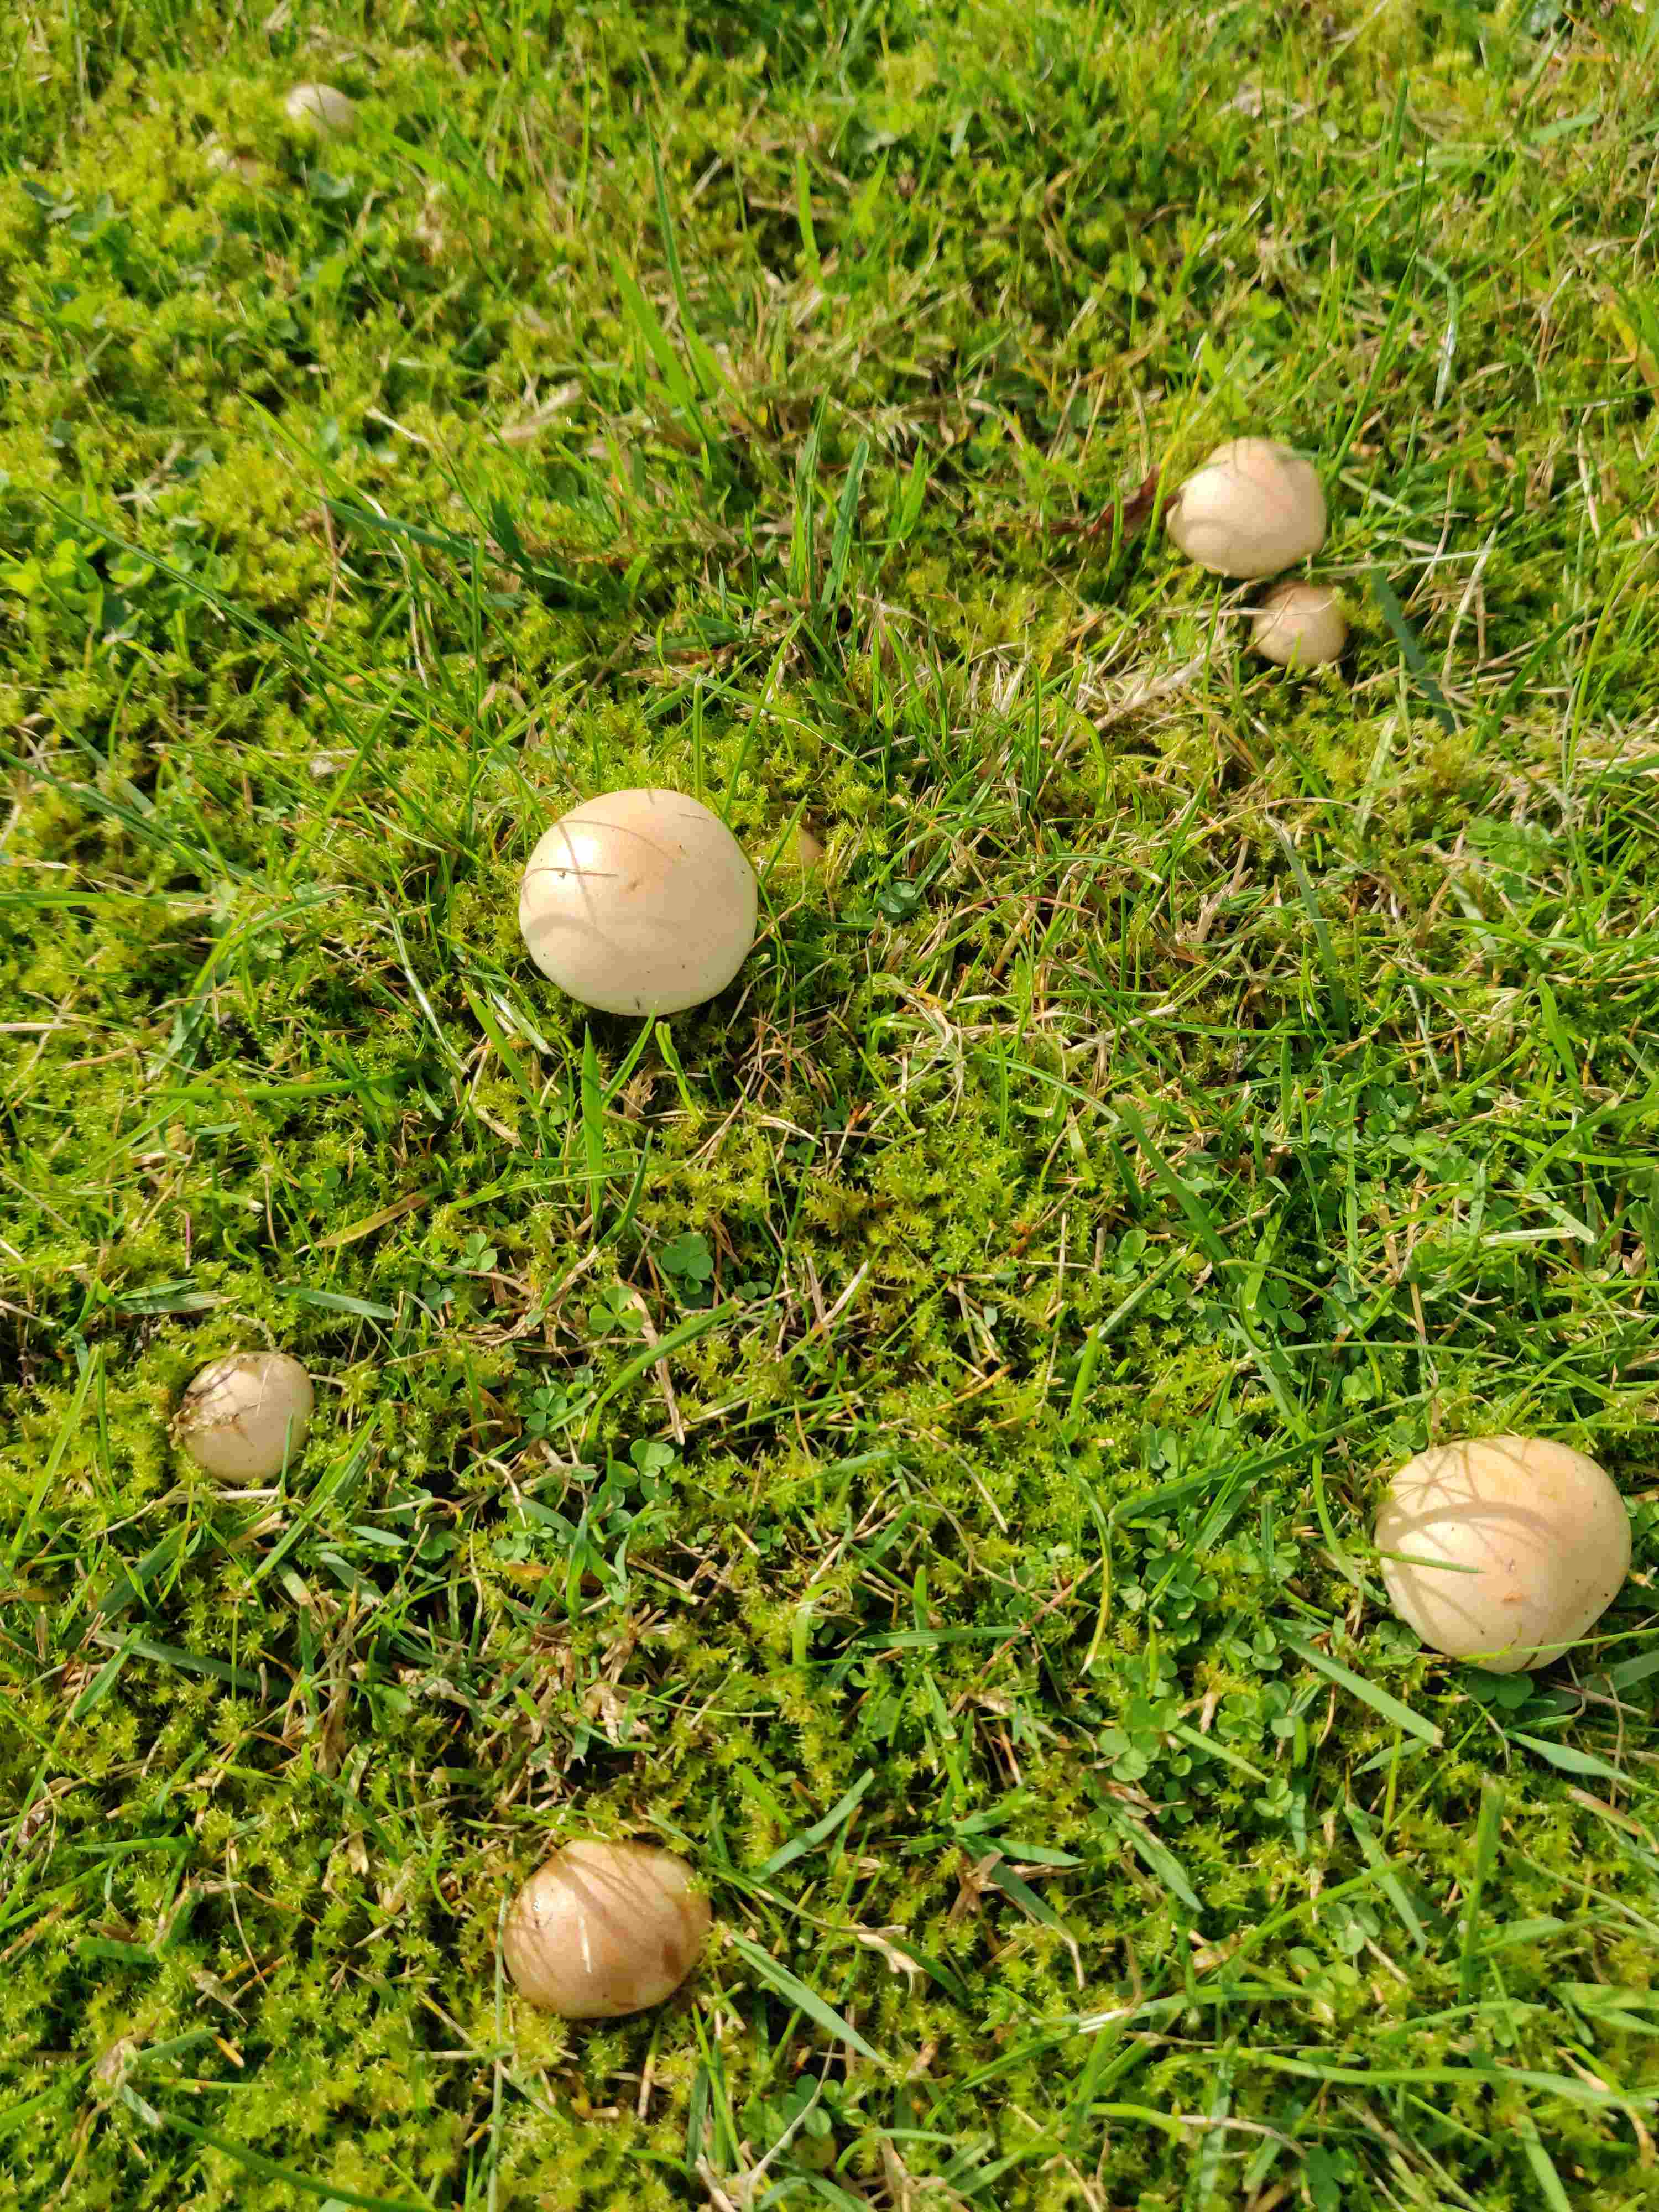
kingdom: Fungi
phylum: Basidiomycota
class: Agaricomycetes
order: Agaricales
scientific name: Agaricales
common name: champignonordenen
